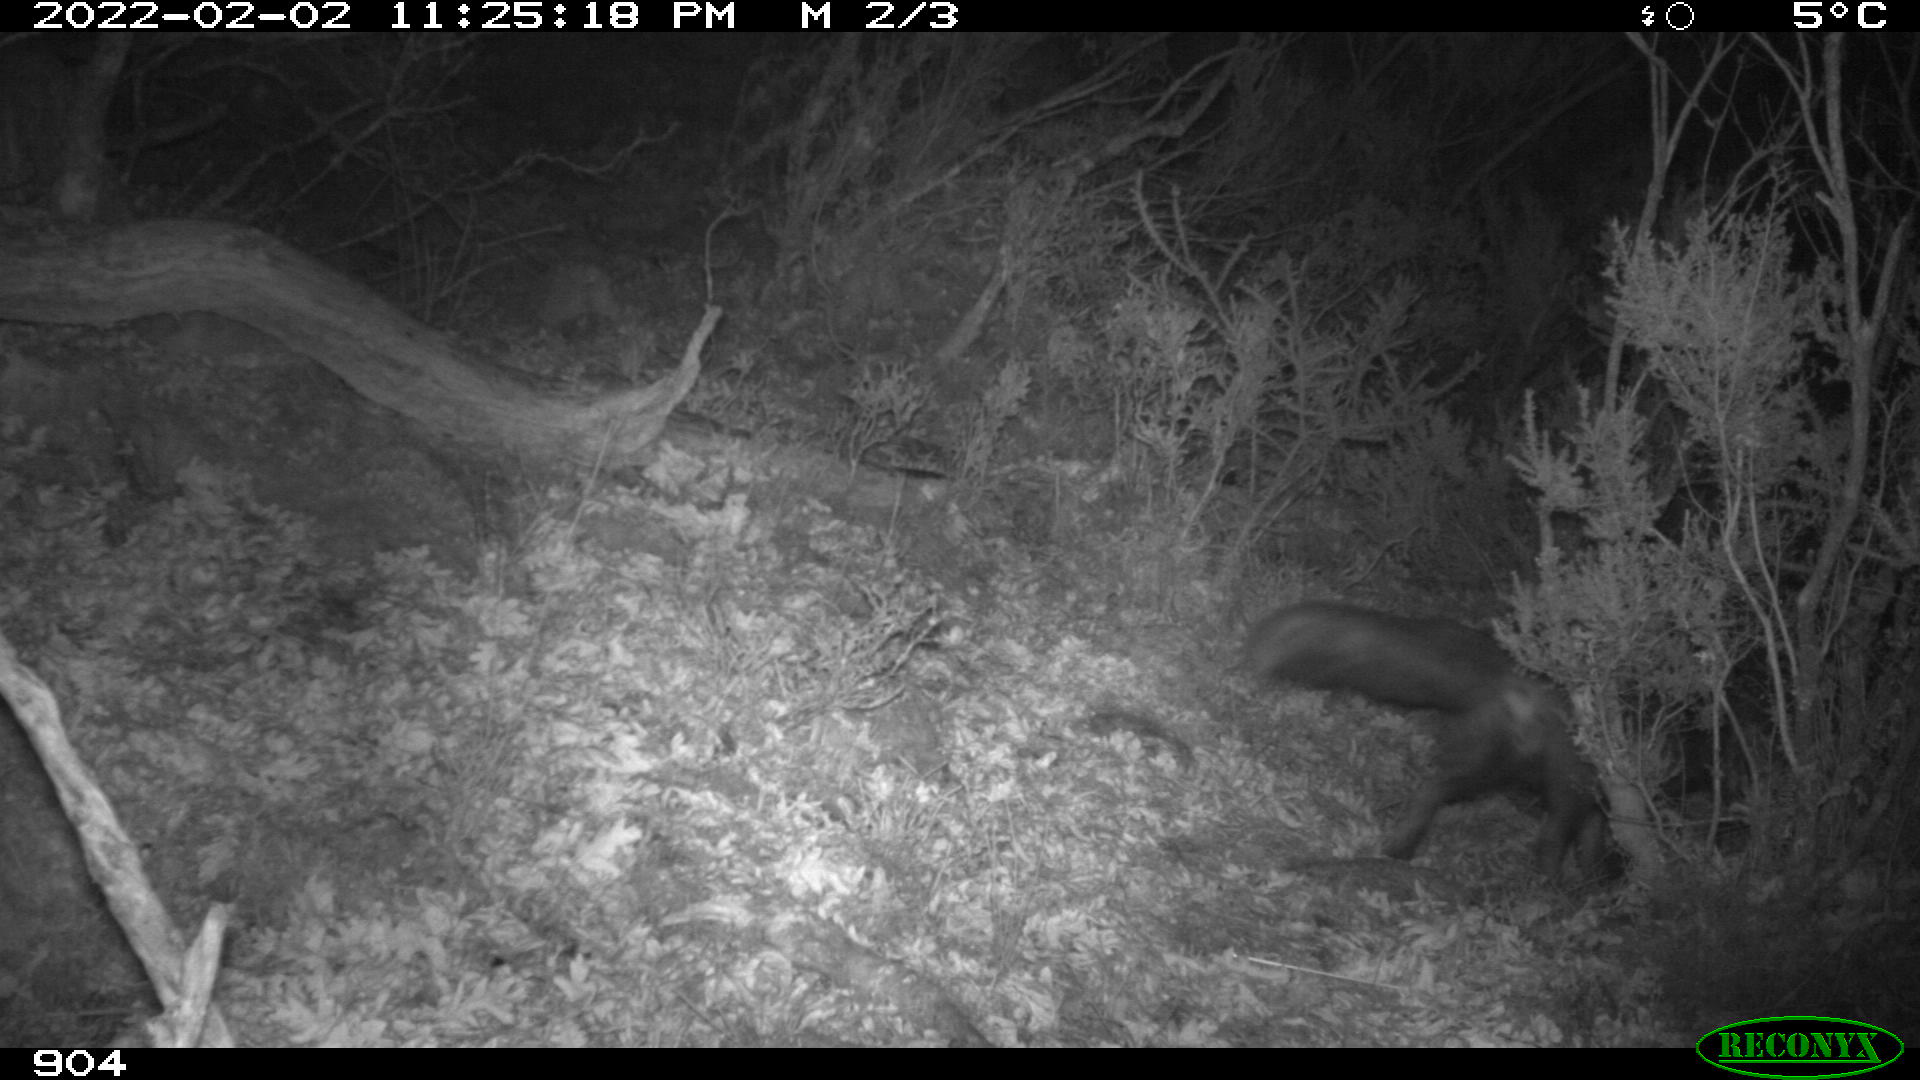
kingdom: Animalia
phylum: Chordata
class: Mammalia
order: Carnivora
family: Canidae
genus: Vulpes
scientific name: Vulpes vulpes
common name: Red fox
